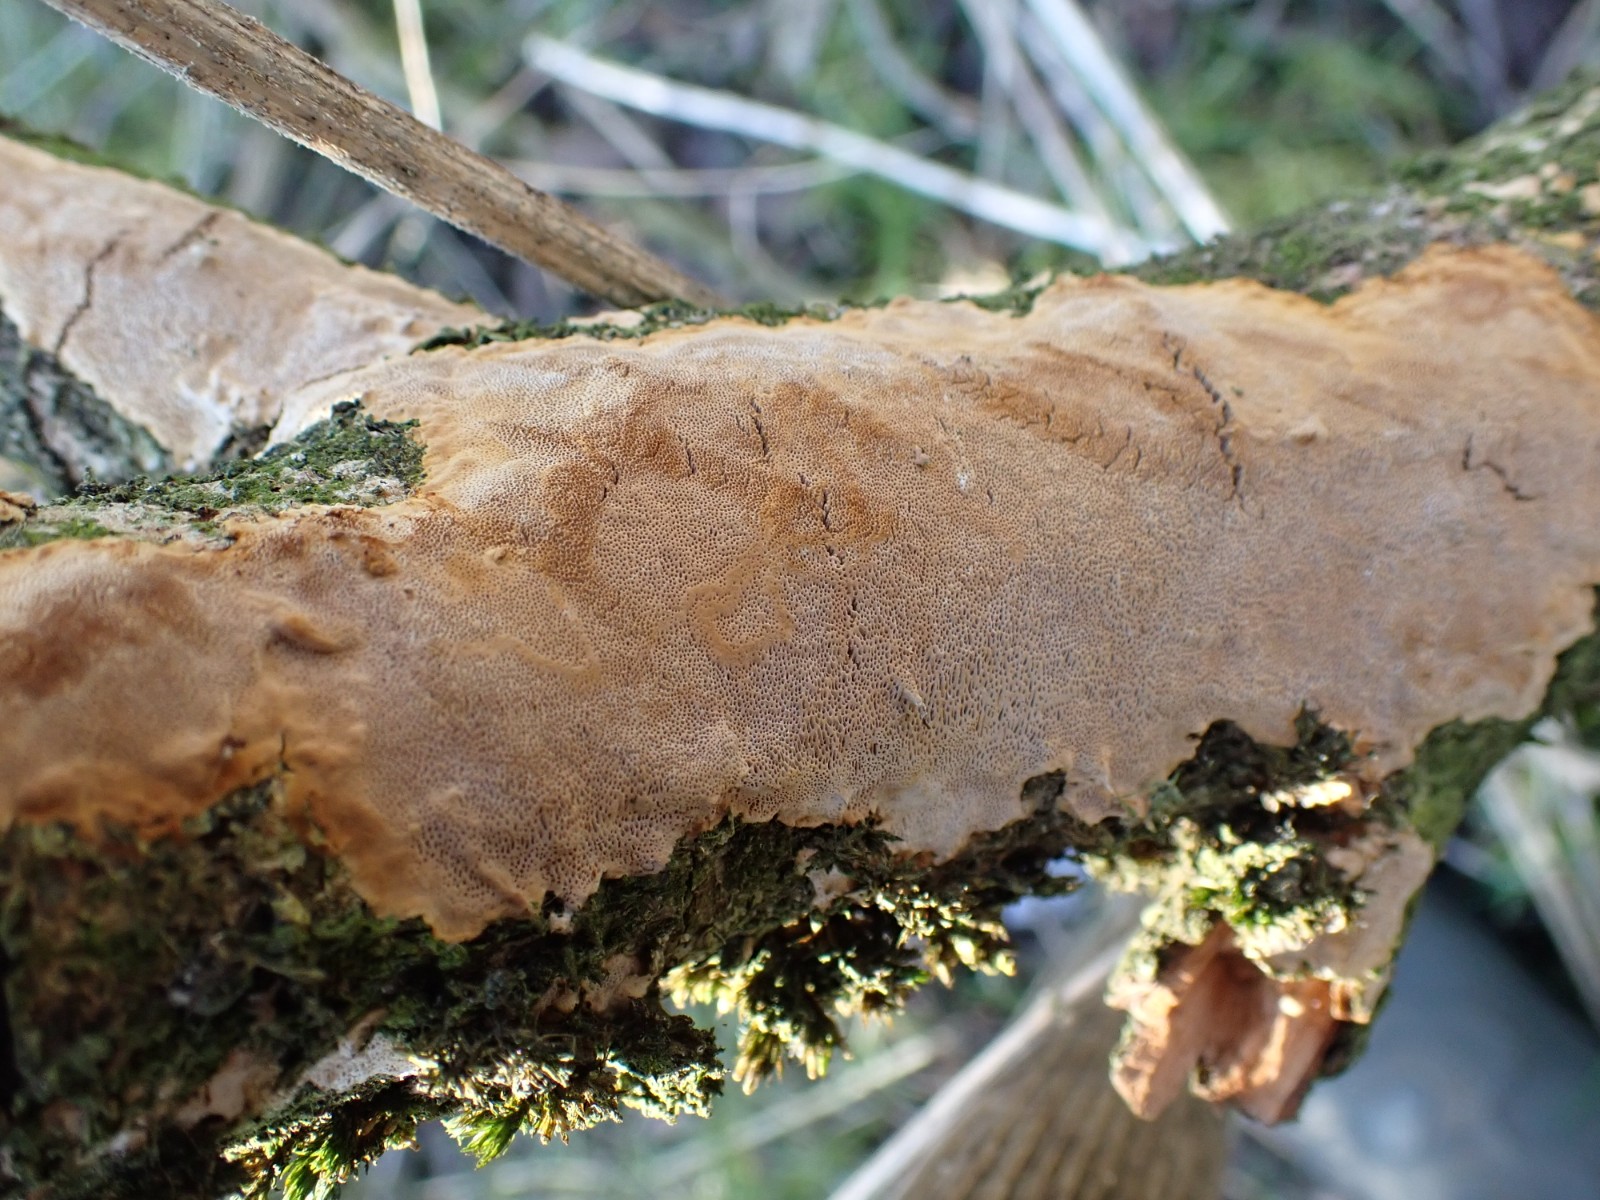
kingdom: Fungi
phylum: Basidiomycota
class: Agaricomycetes
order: Hymenochaetales
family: Hymenochaetaceae
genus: Fomitiporia
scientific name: Fomitiporia punctata
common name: pude-ildporesvamp
